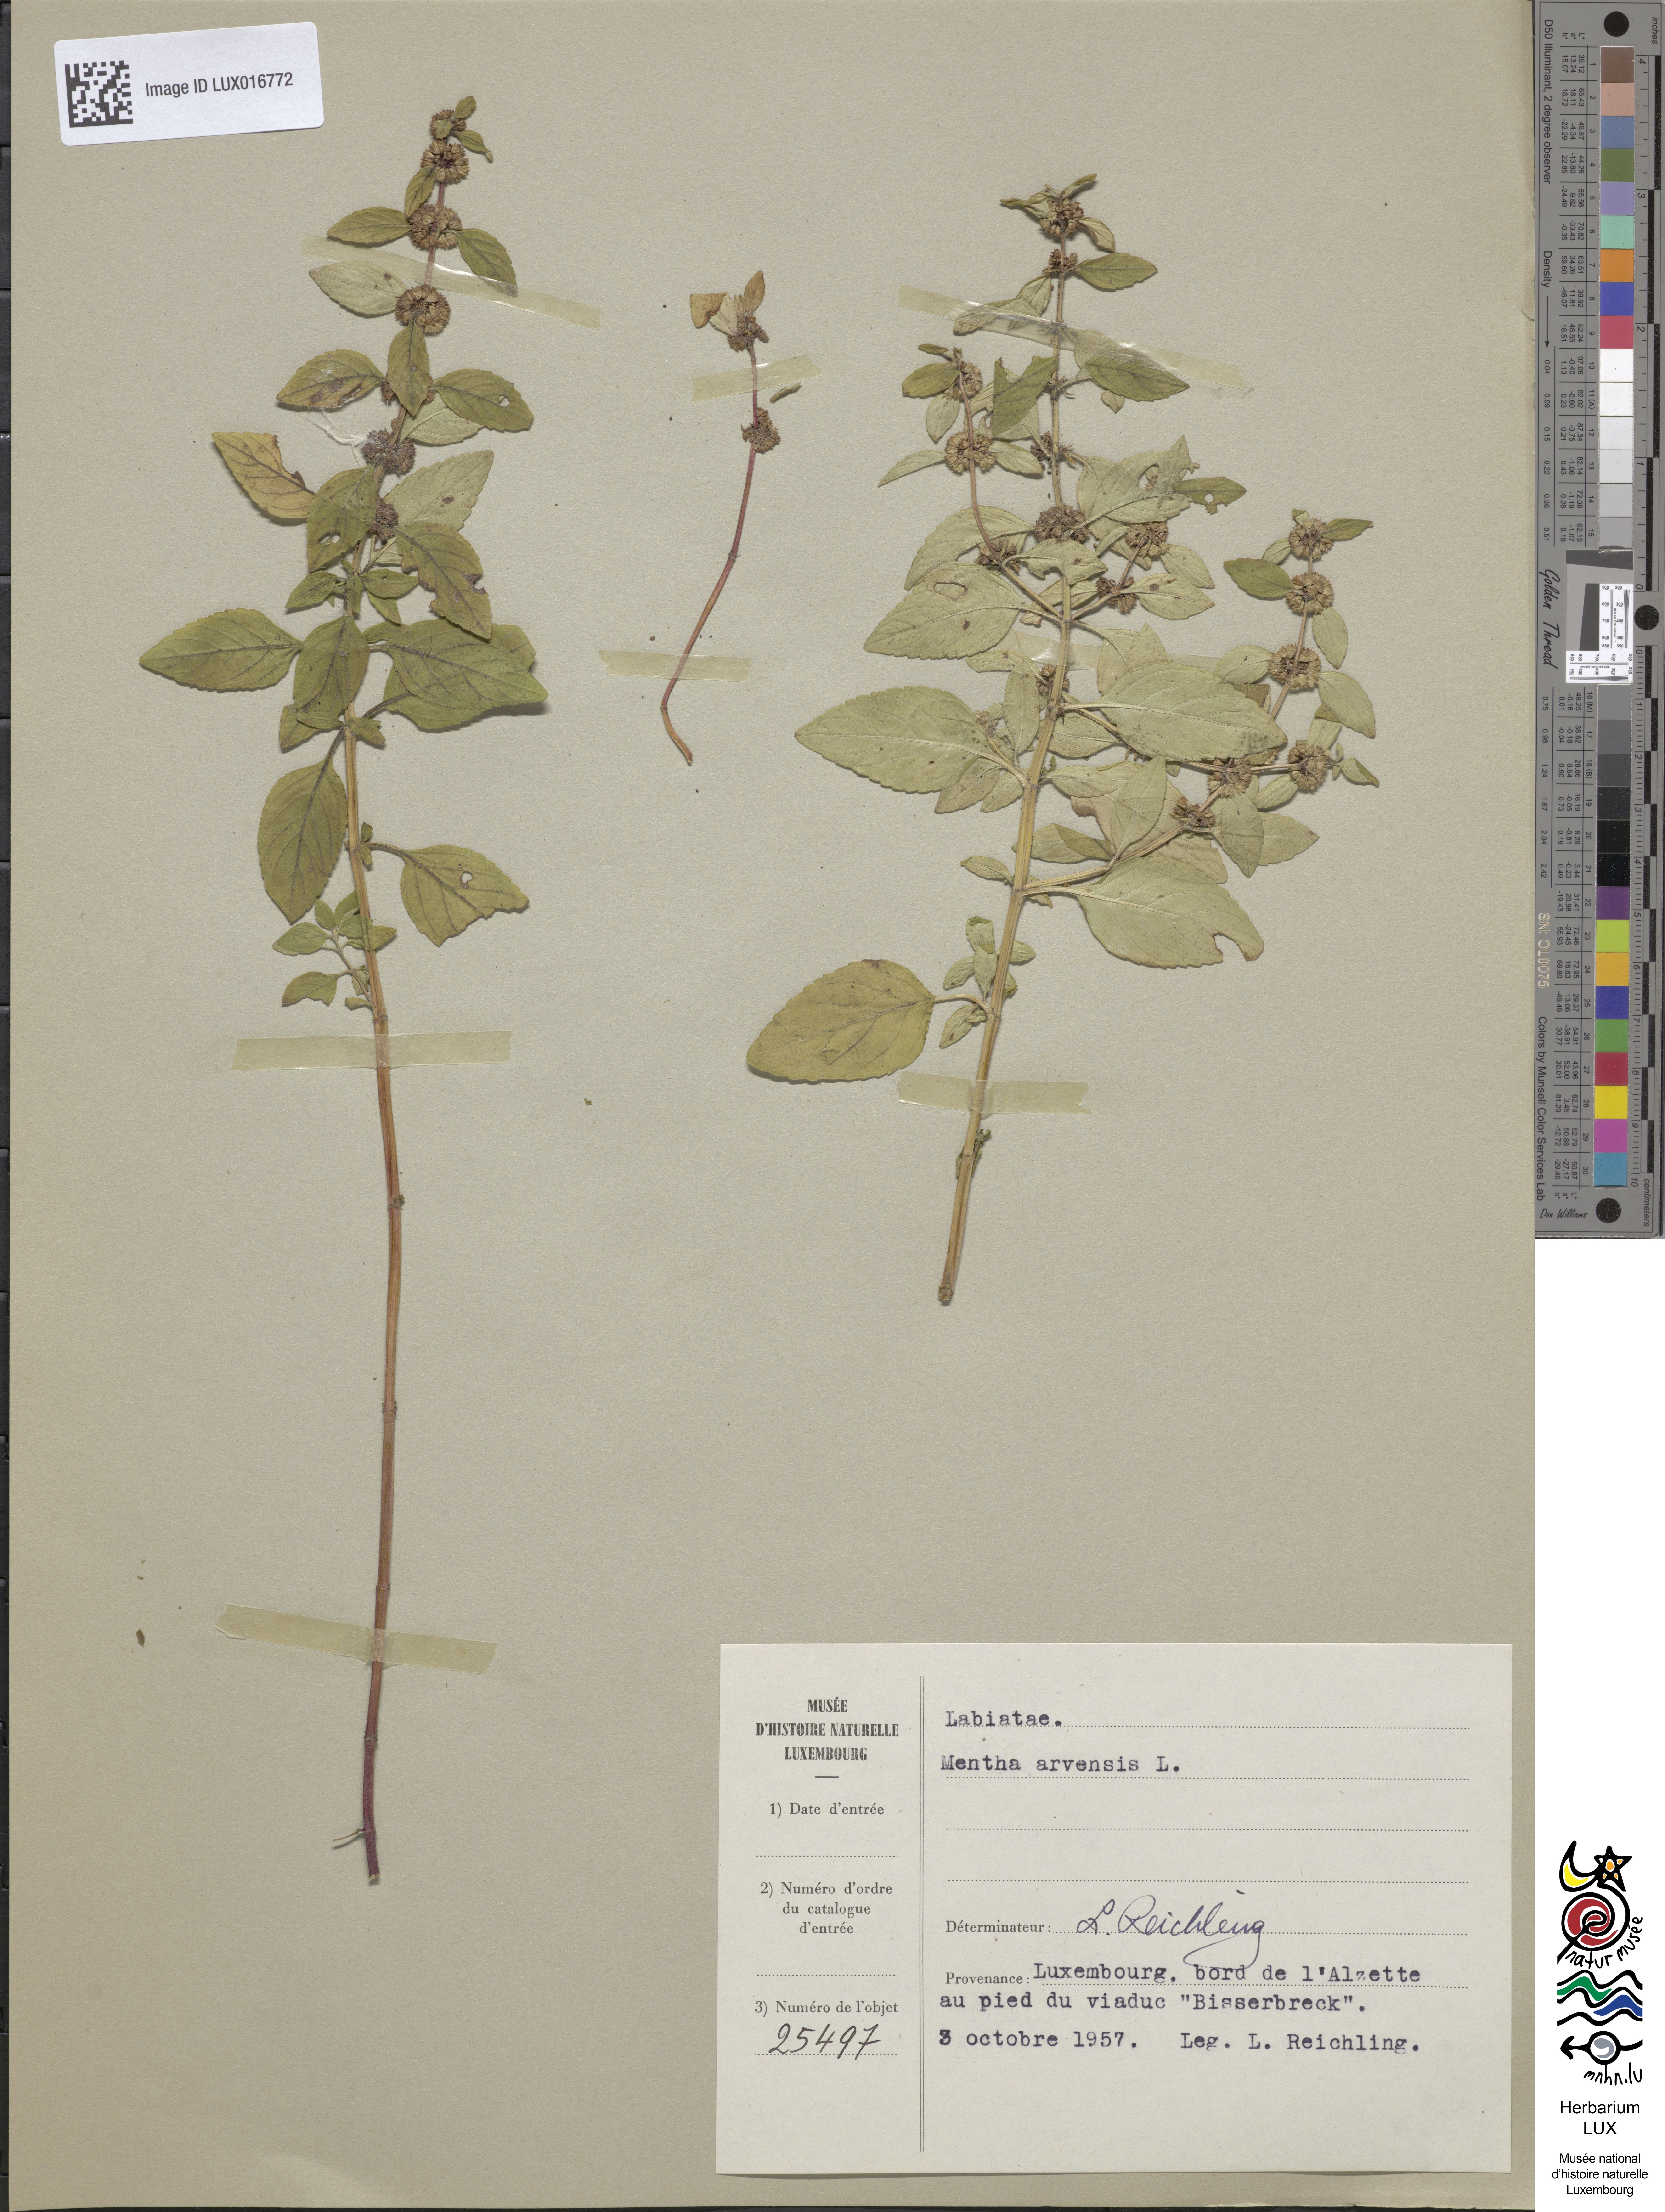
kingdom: Plantae
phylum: Tracheophyta
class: Magnoliopsida
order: Lamiales
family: Lamiaceae
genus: Mentha
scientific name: Mentha arvensis
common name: Corn mint
